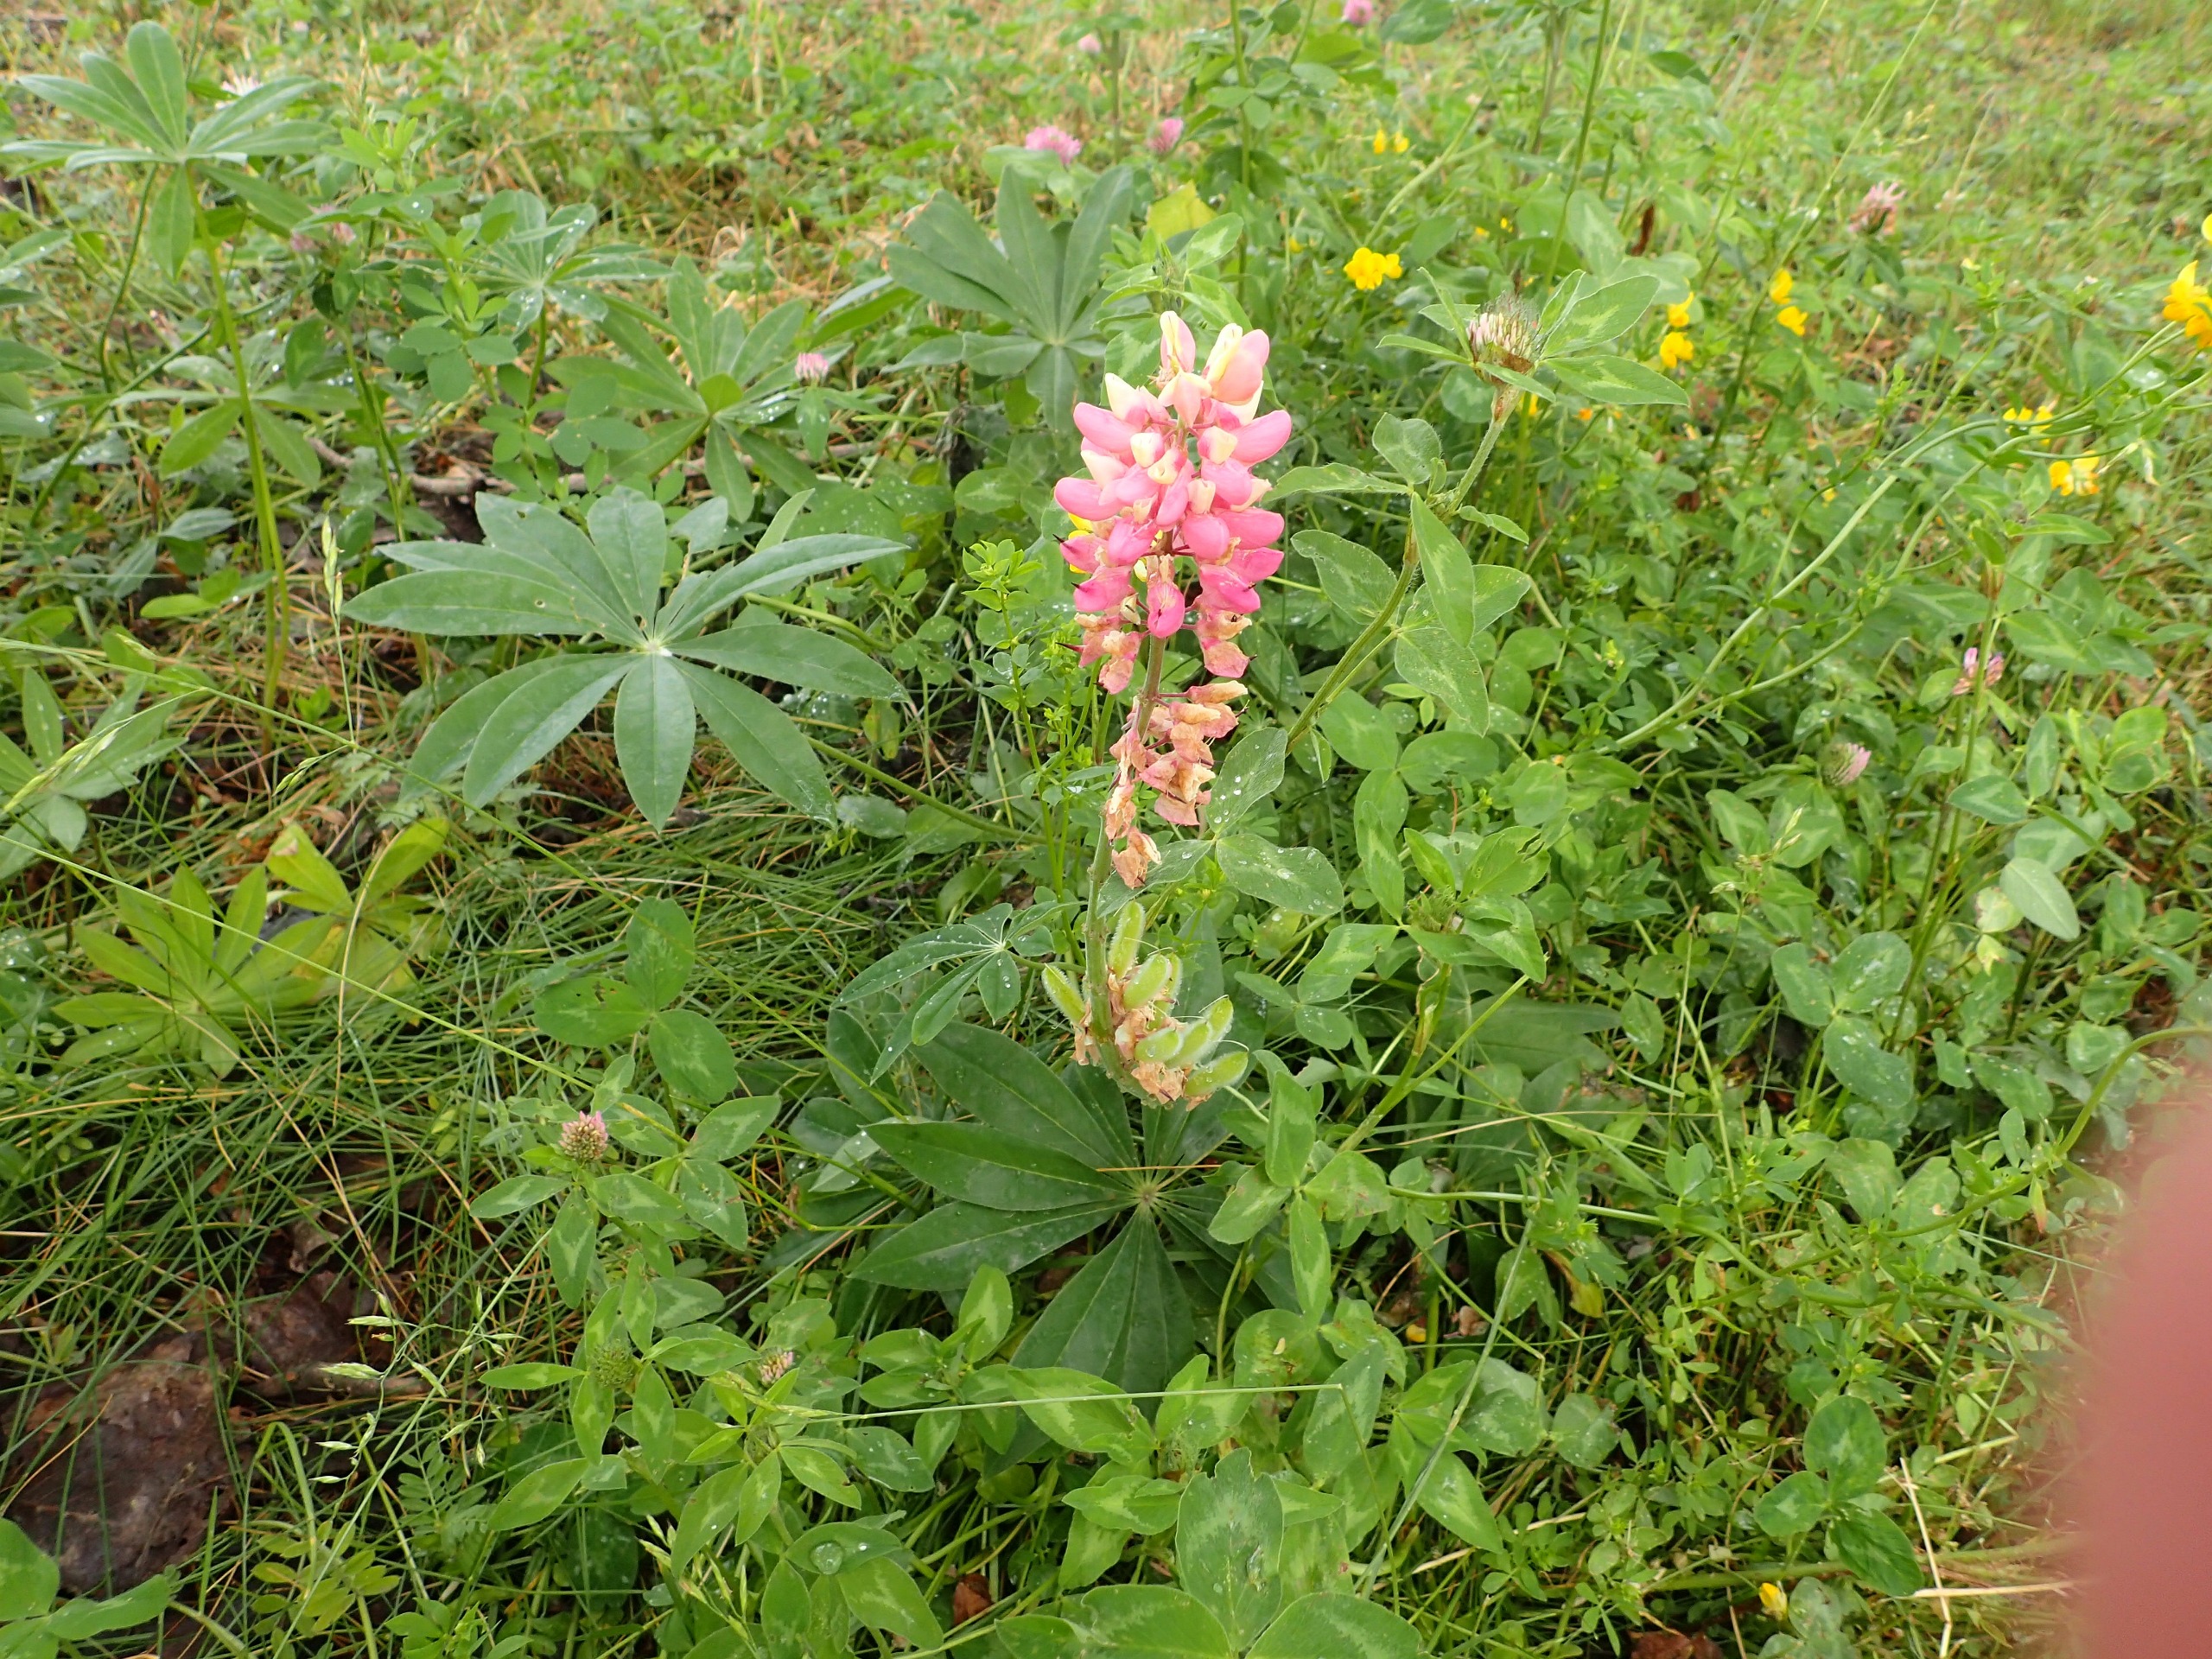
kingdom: Plantae
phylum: Tracheophyta
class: Magnoliopsida
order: Fabales
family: Fabaceae
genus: Lupinus
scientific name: Lupinus polyphyllus
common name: Mangebladet lupin
